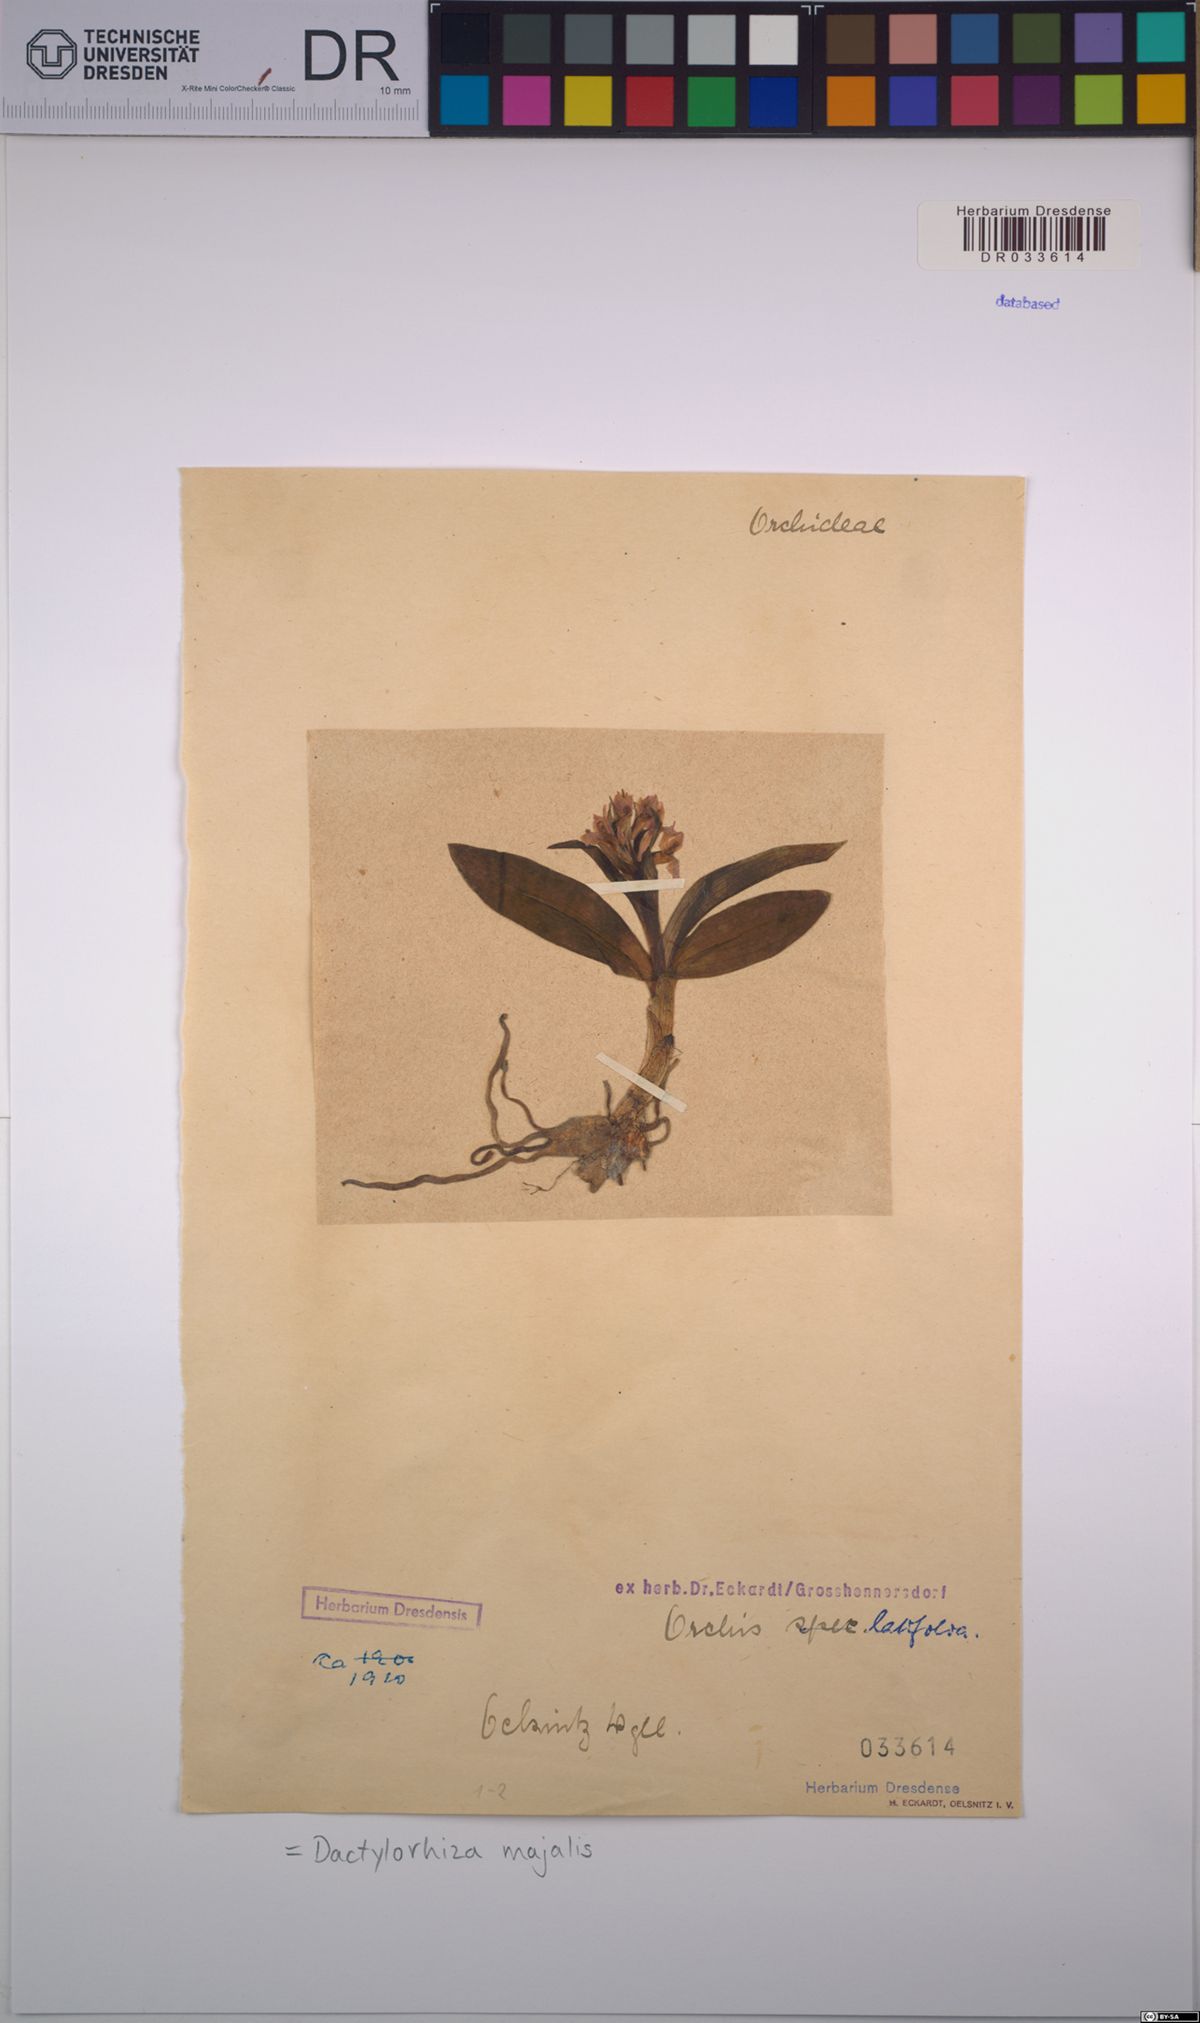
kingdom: Plantae
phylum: Tracheophyta
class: Liliopsida
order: Asparagales
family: Orchidaceae
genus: Dactylorhiza
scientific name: Dactylorhiza majalis
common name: Marsh orchid
